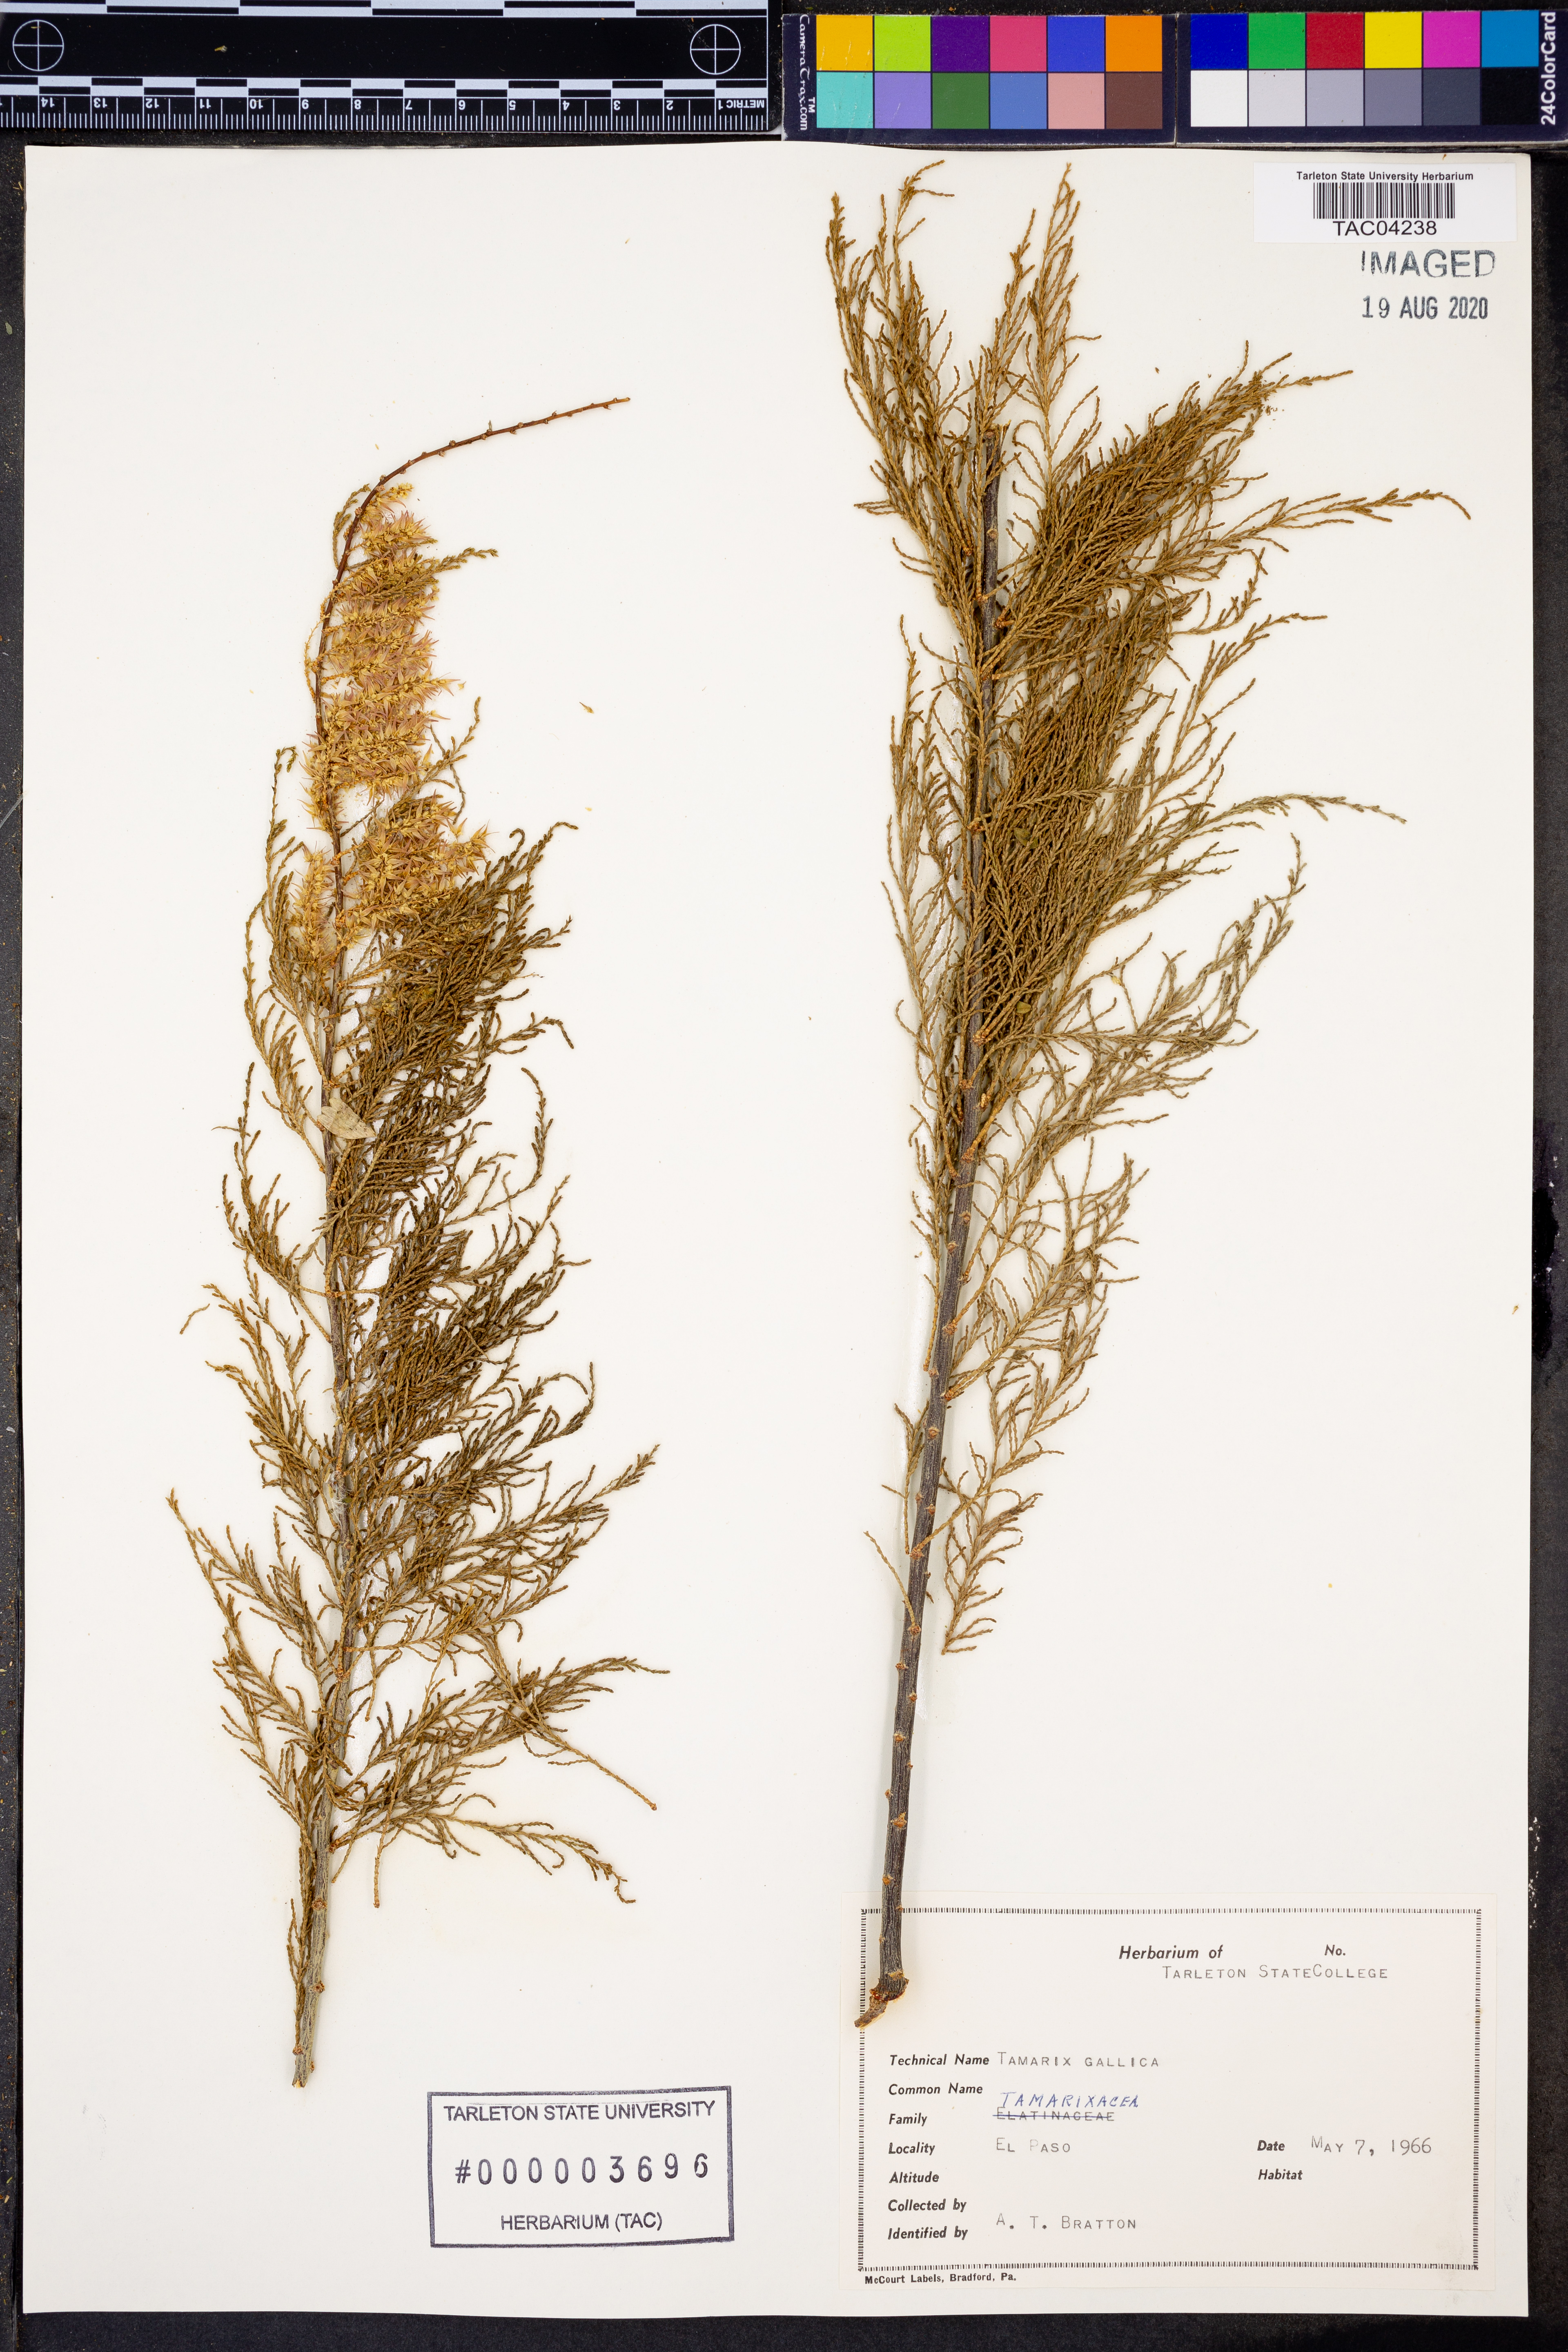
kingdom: Plantae
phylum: Tracheophyta
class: Magnoliopsida
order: Caryophyllales
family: Tamaricaceae
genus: Tamarix
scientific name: Tamarix gallica
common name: Tamarisk
